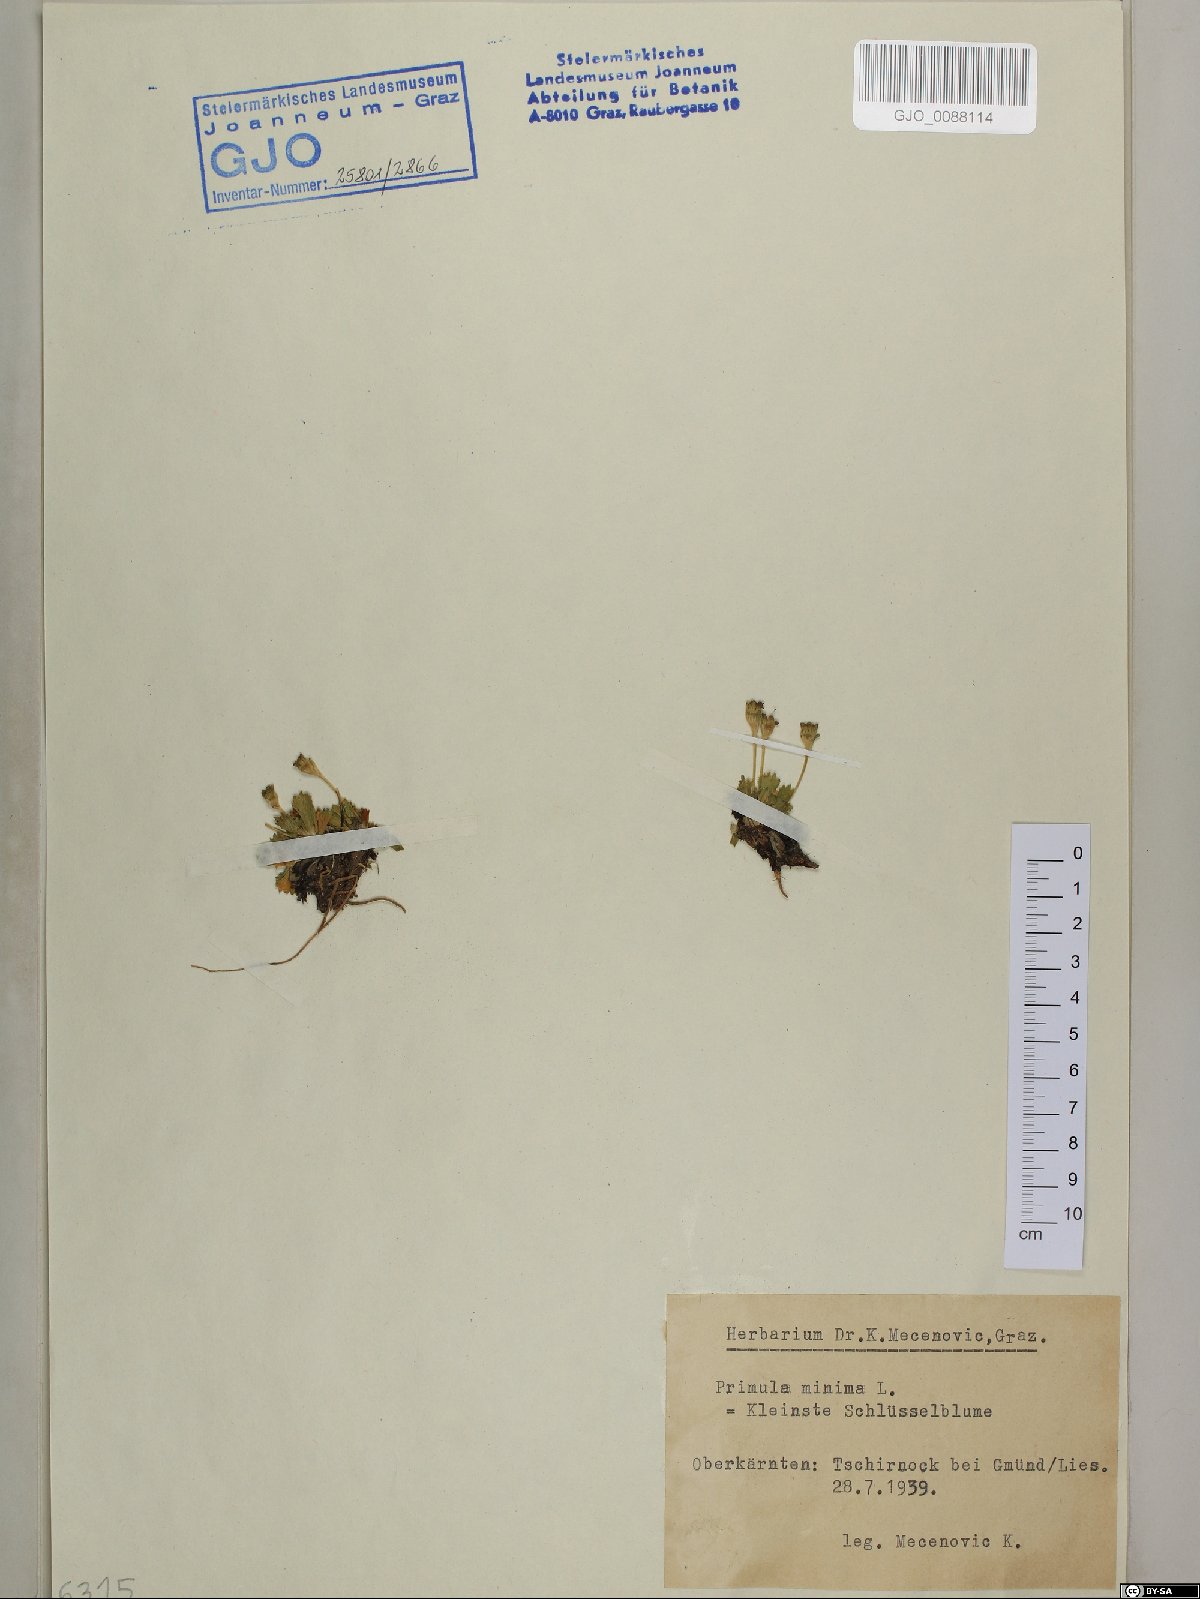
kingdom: Plantae
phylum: Tracheophyta
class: Magnoliopsida
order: Ericales
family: Primulaceae
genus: Primula
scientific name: Primula minima
